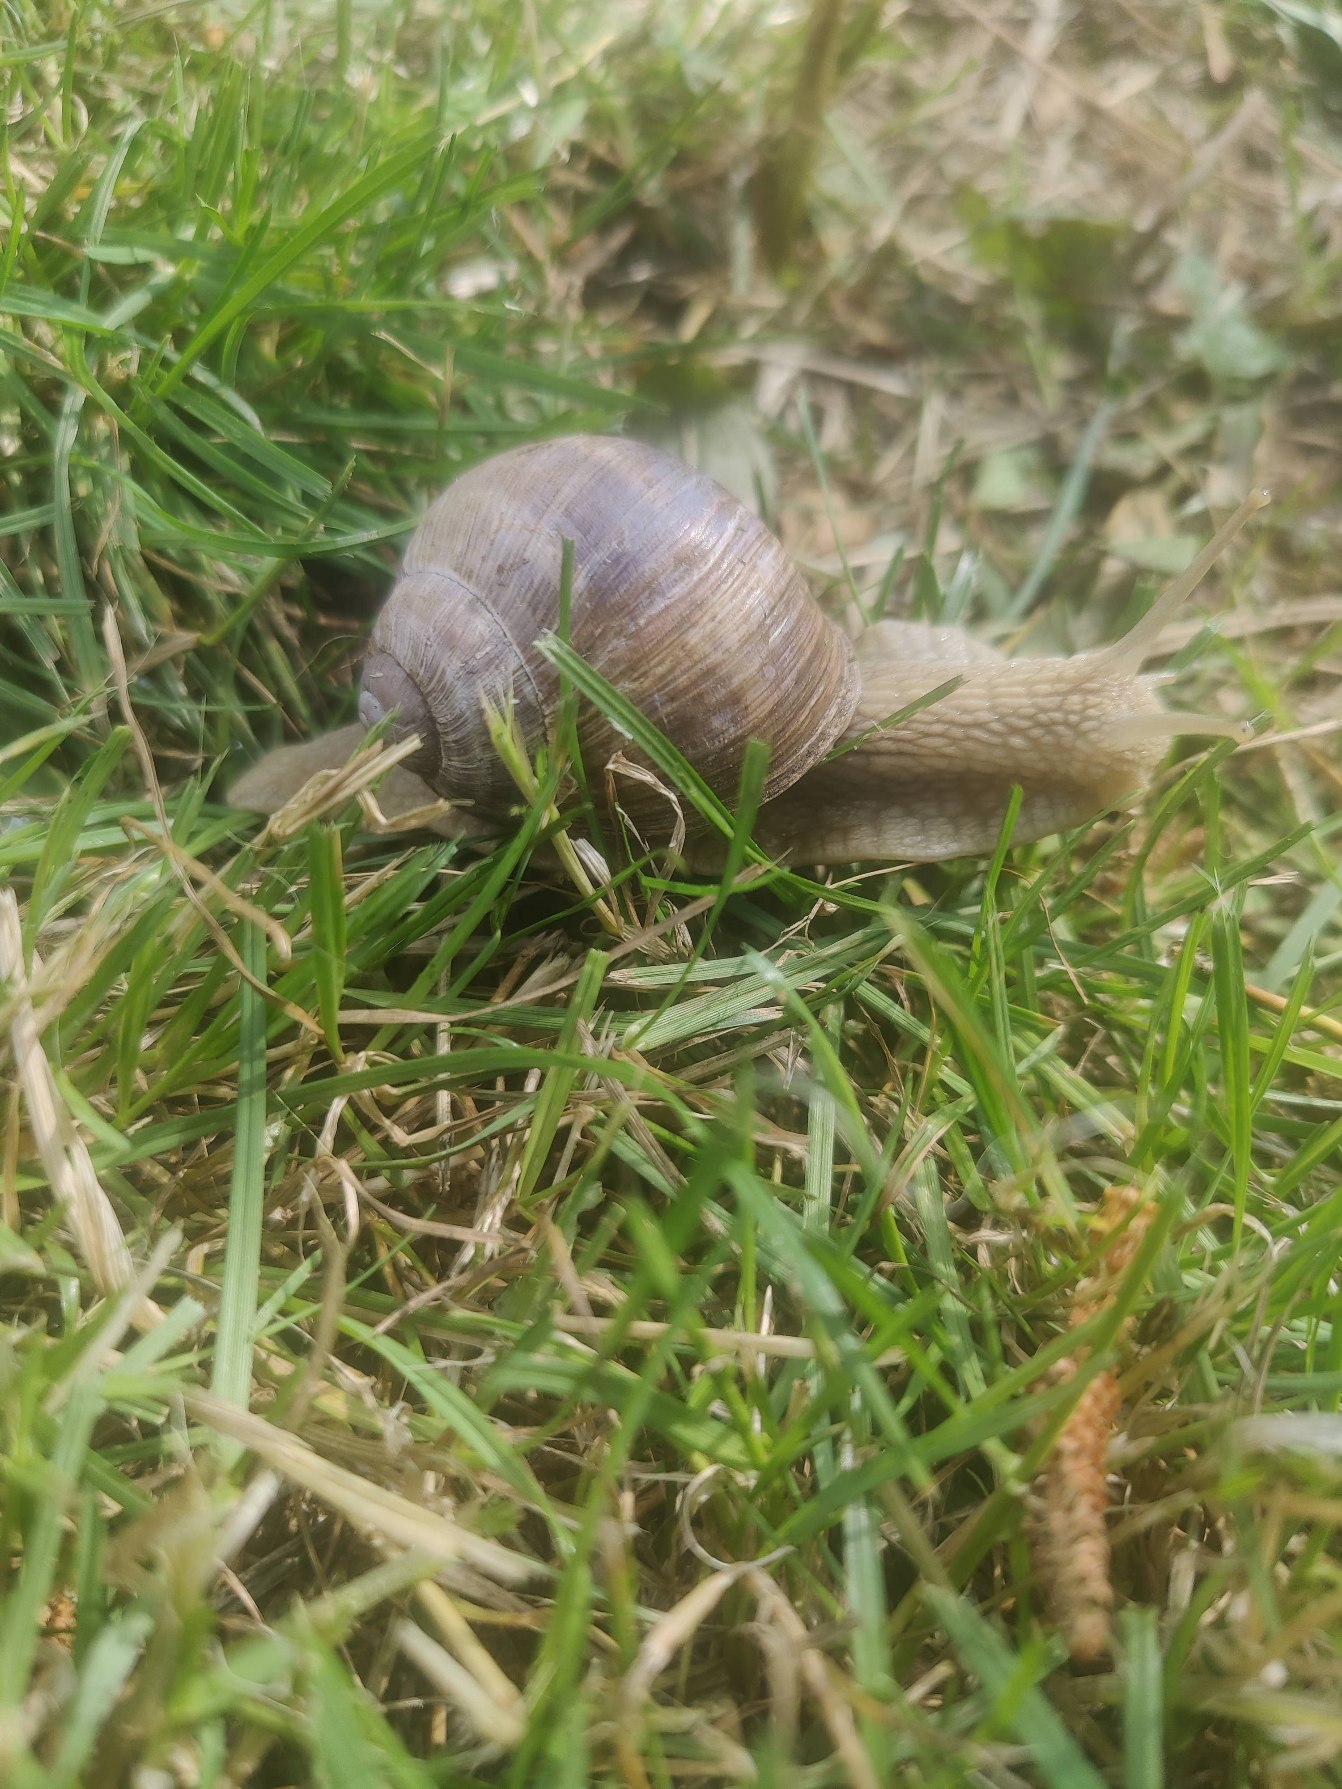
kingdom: Animalia
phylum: Mollusca
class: Gastropoda
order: Stylommatophora
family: Helicidae
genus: Helix
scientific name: Helix pomatia
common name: Vinbjergsnegl
